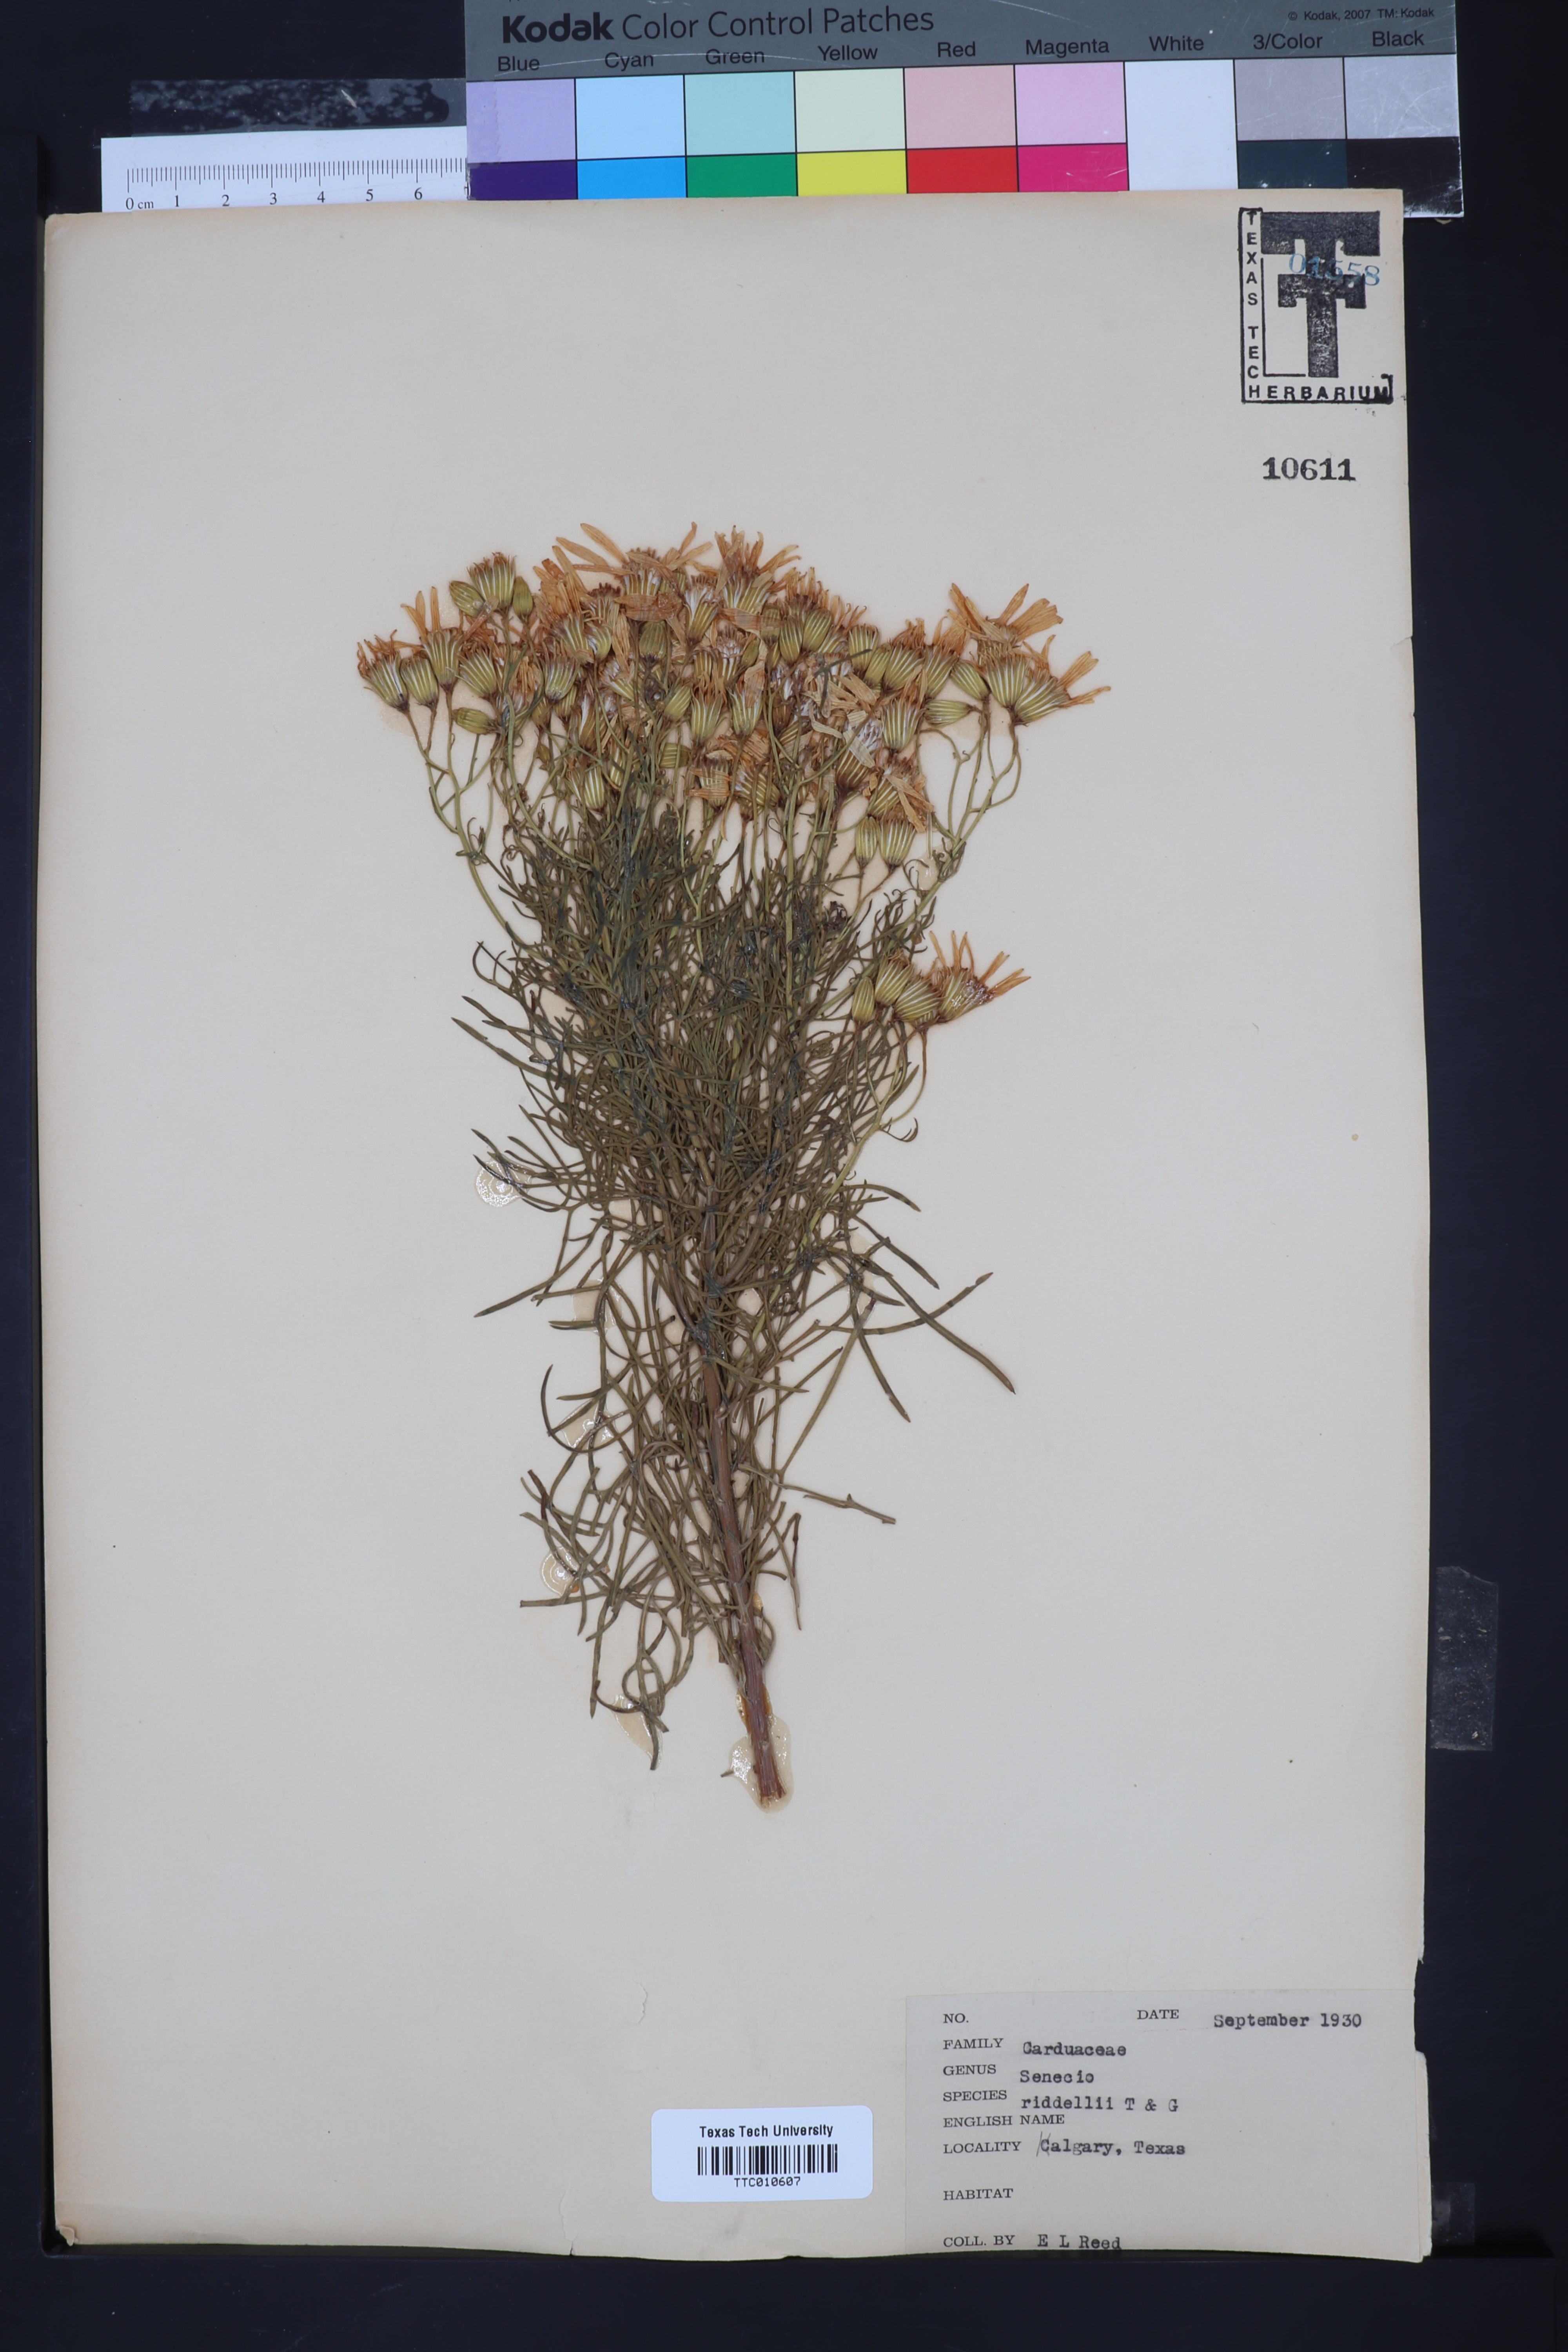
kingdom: Plantae
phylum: Tracheophyta
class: Magnoliopsida
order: Asterales
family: Asteraceae
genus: Senecio
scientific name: Senecio riddellii
